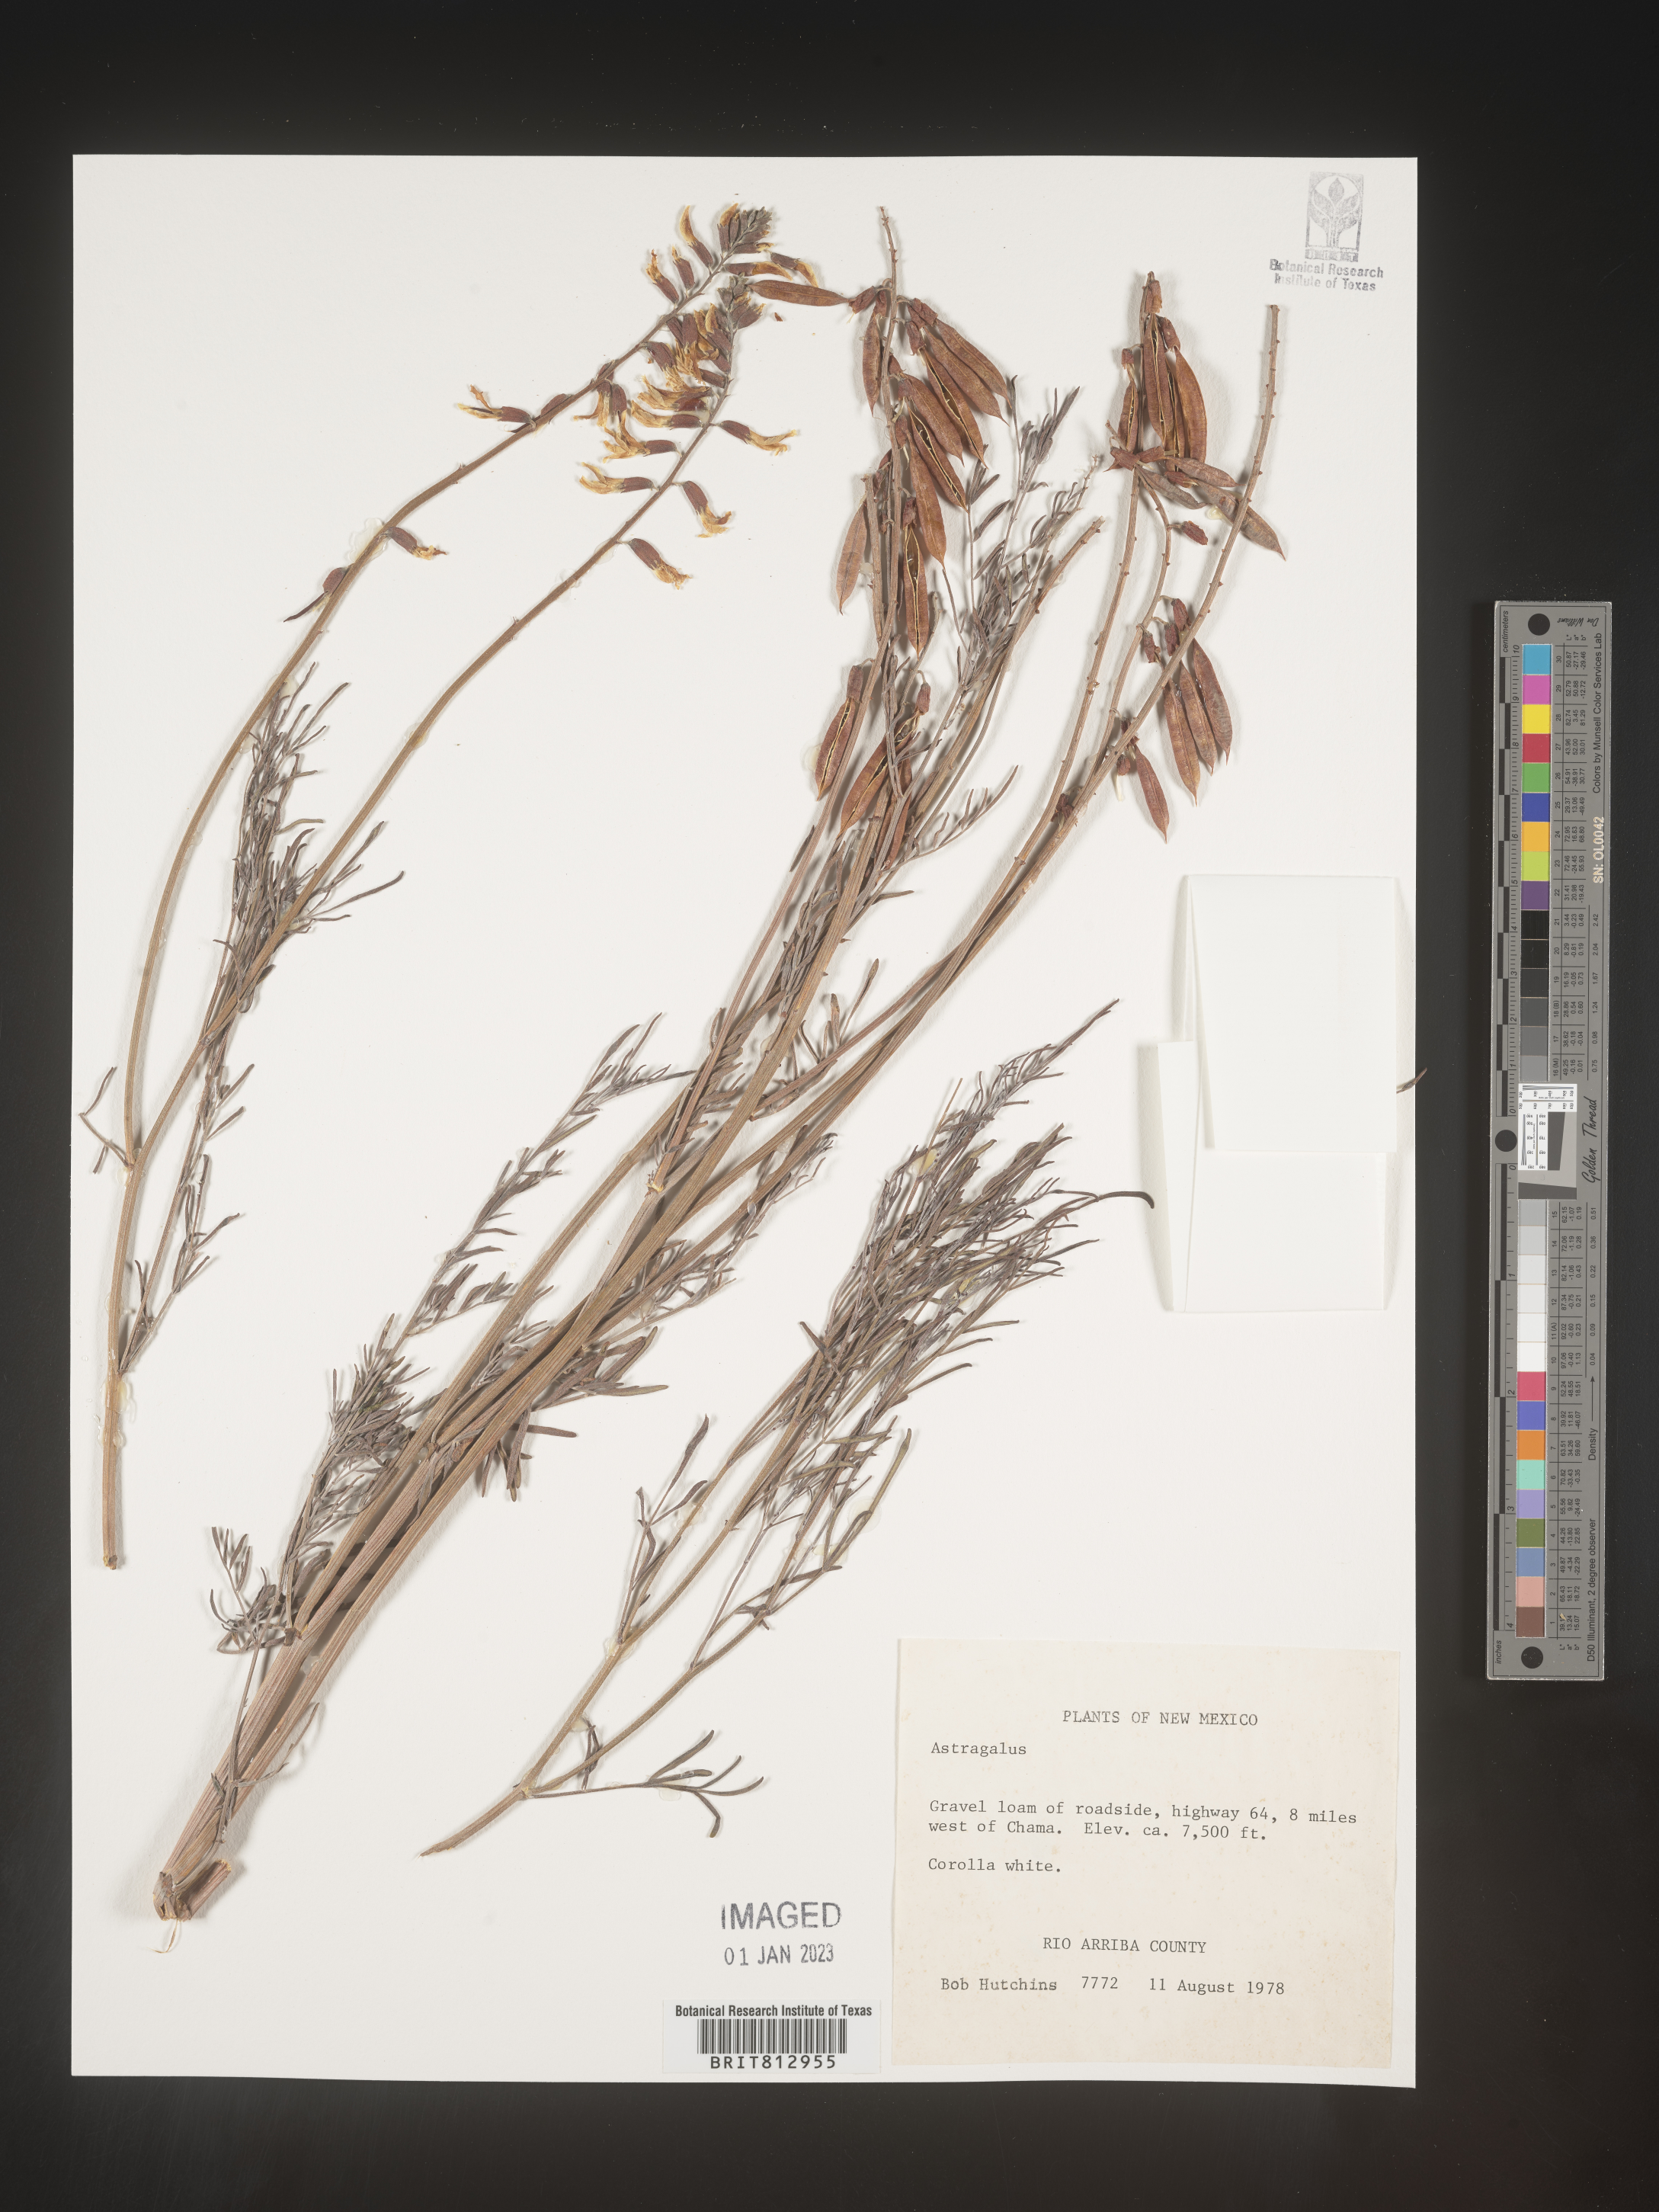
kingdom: Plantae
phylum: Tracheophyta
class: Magnoliopsida
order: Fabales
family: Fabaceae
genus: Astragalus
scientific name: Astragalus
